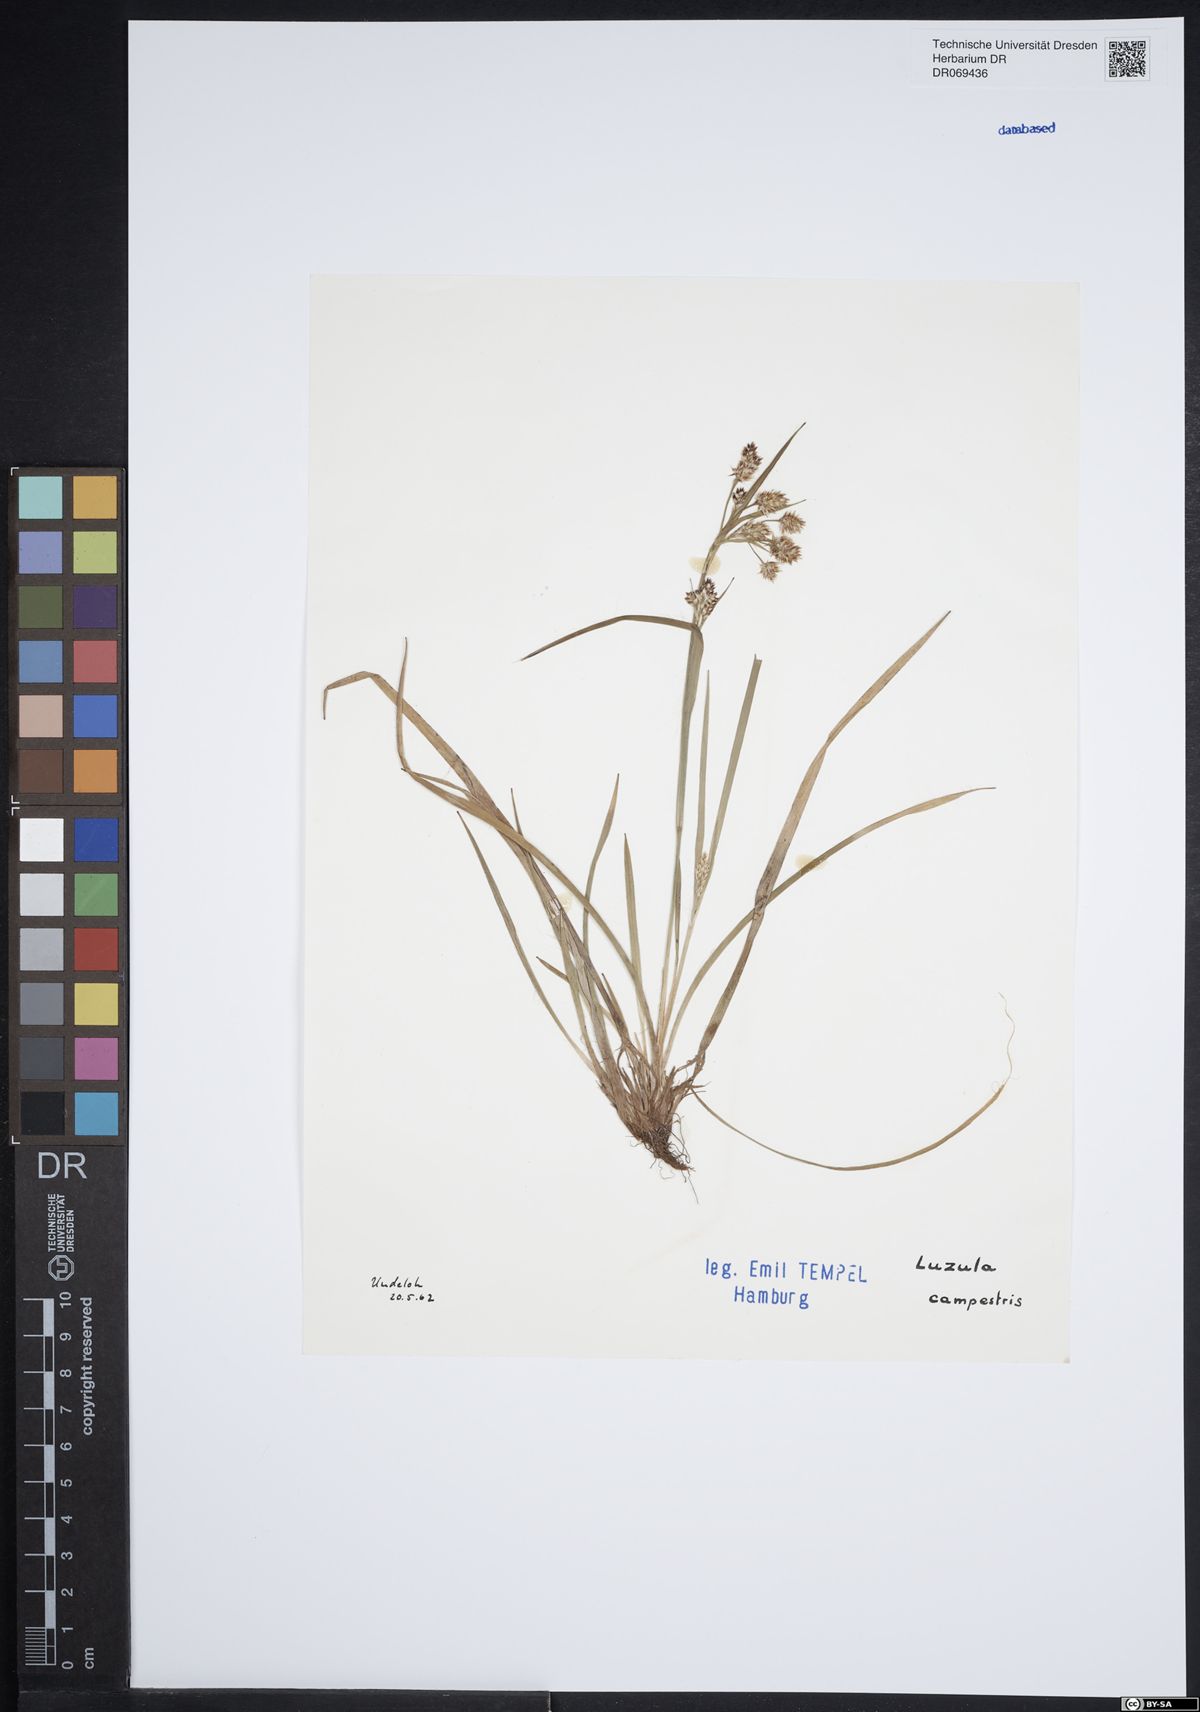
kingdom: Plantae
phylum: Tracheophyta
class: Liliopsida
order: Poales
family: Juncaceae
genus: Luzula
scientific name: Luzula campestris
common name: Field wood-rush
